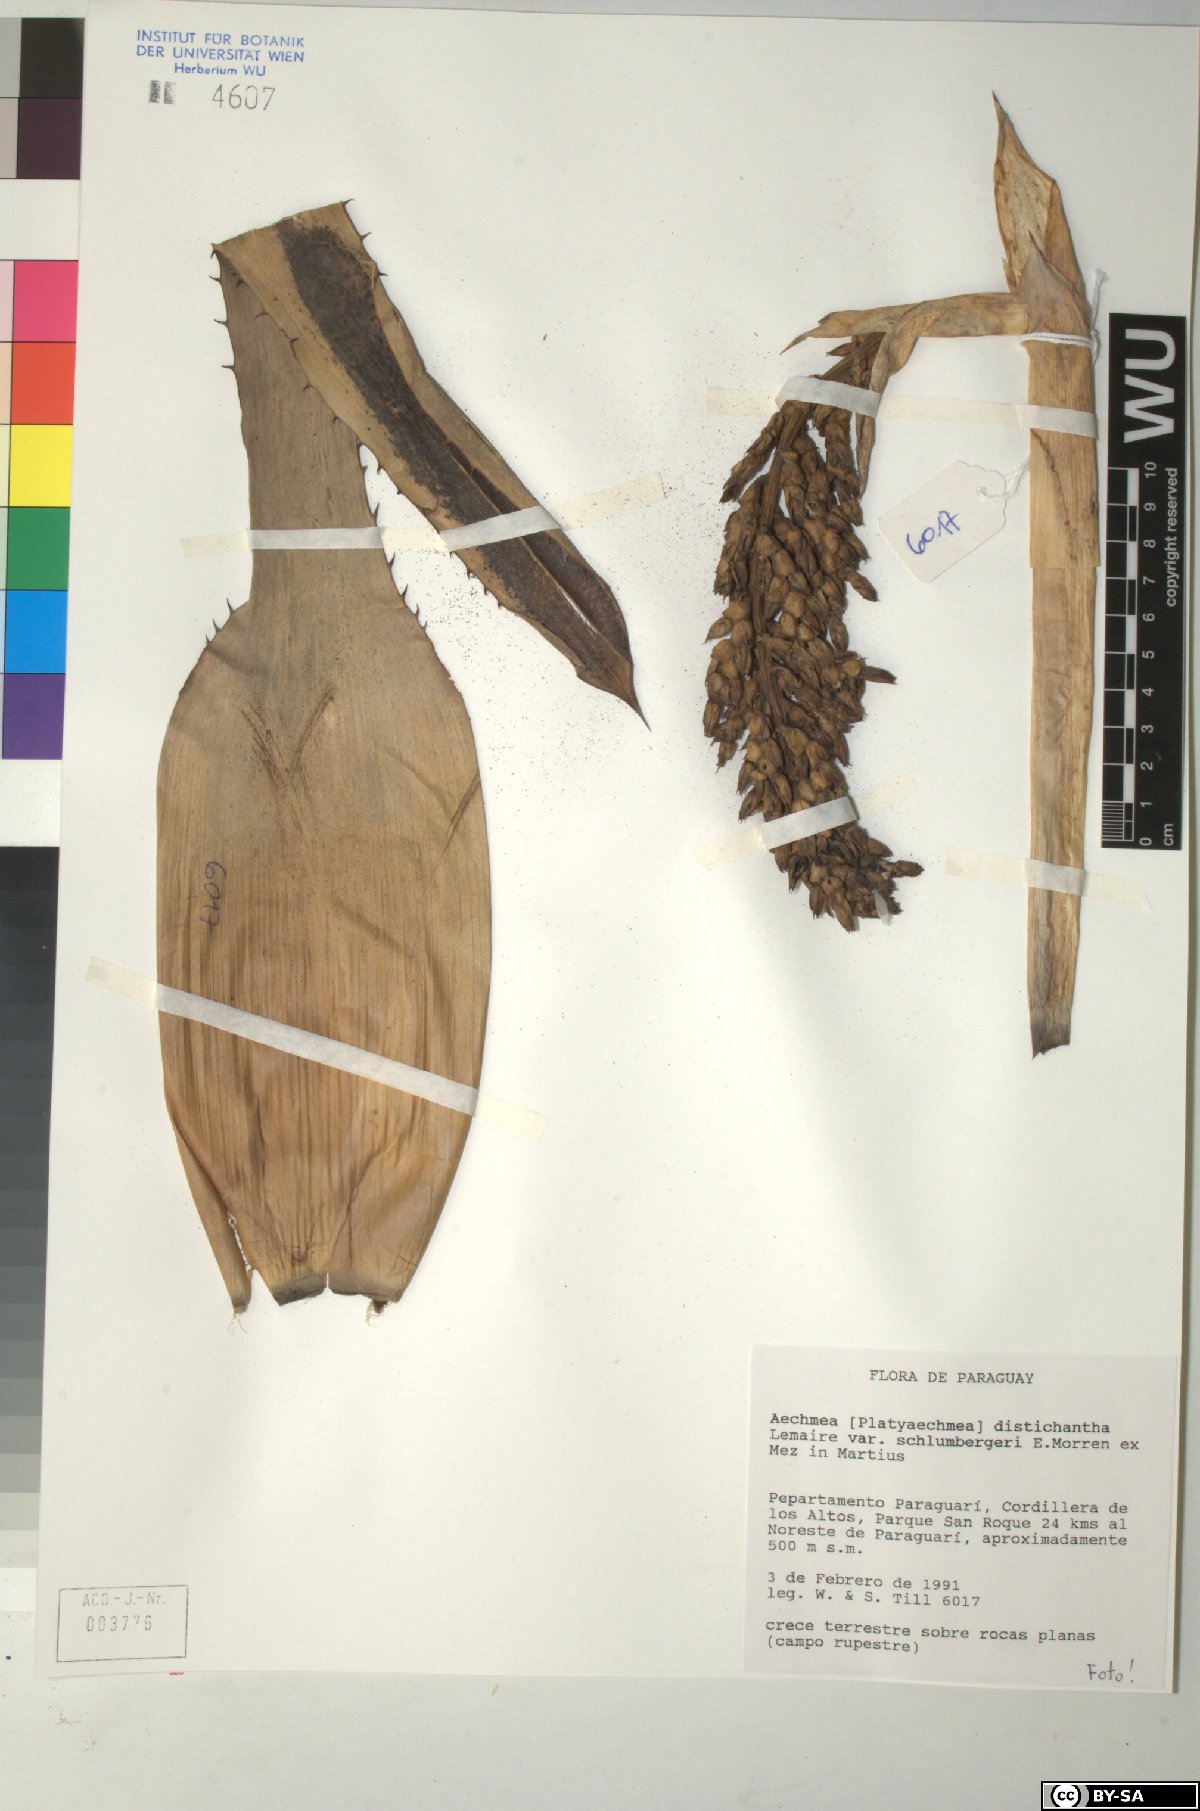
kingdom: Plantae
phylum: Tracheophyta
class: Liliopsida
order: Poales
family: Bromeliaceae
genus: Aechmea
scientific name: Aechmea distichantha
